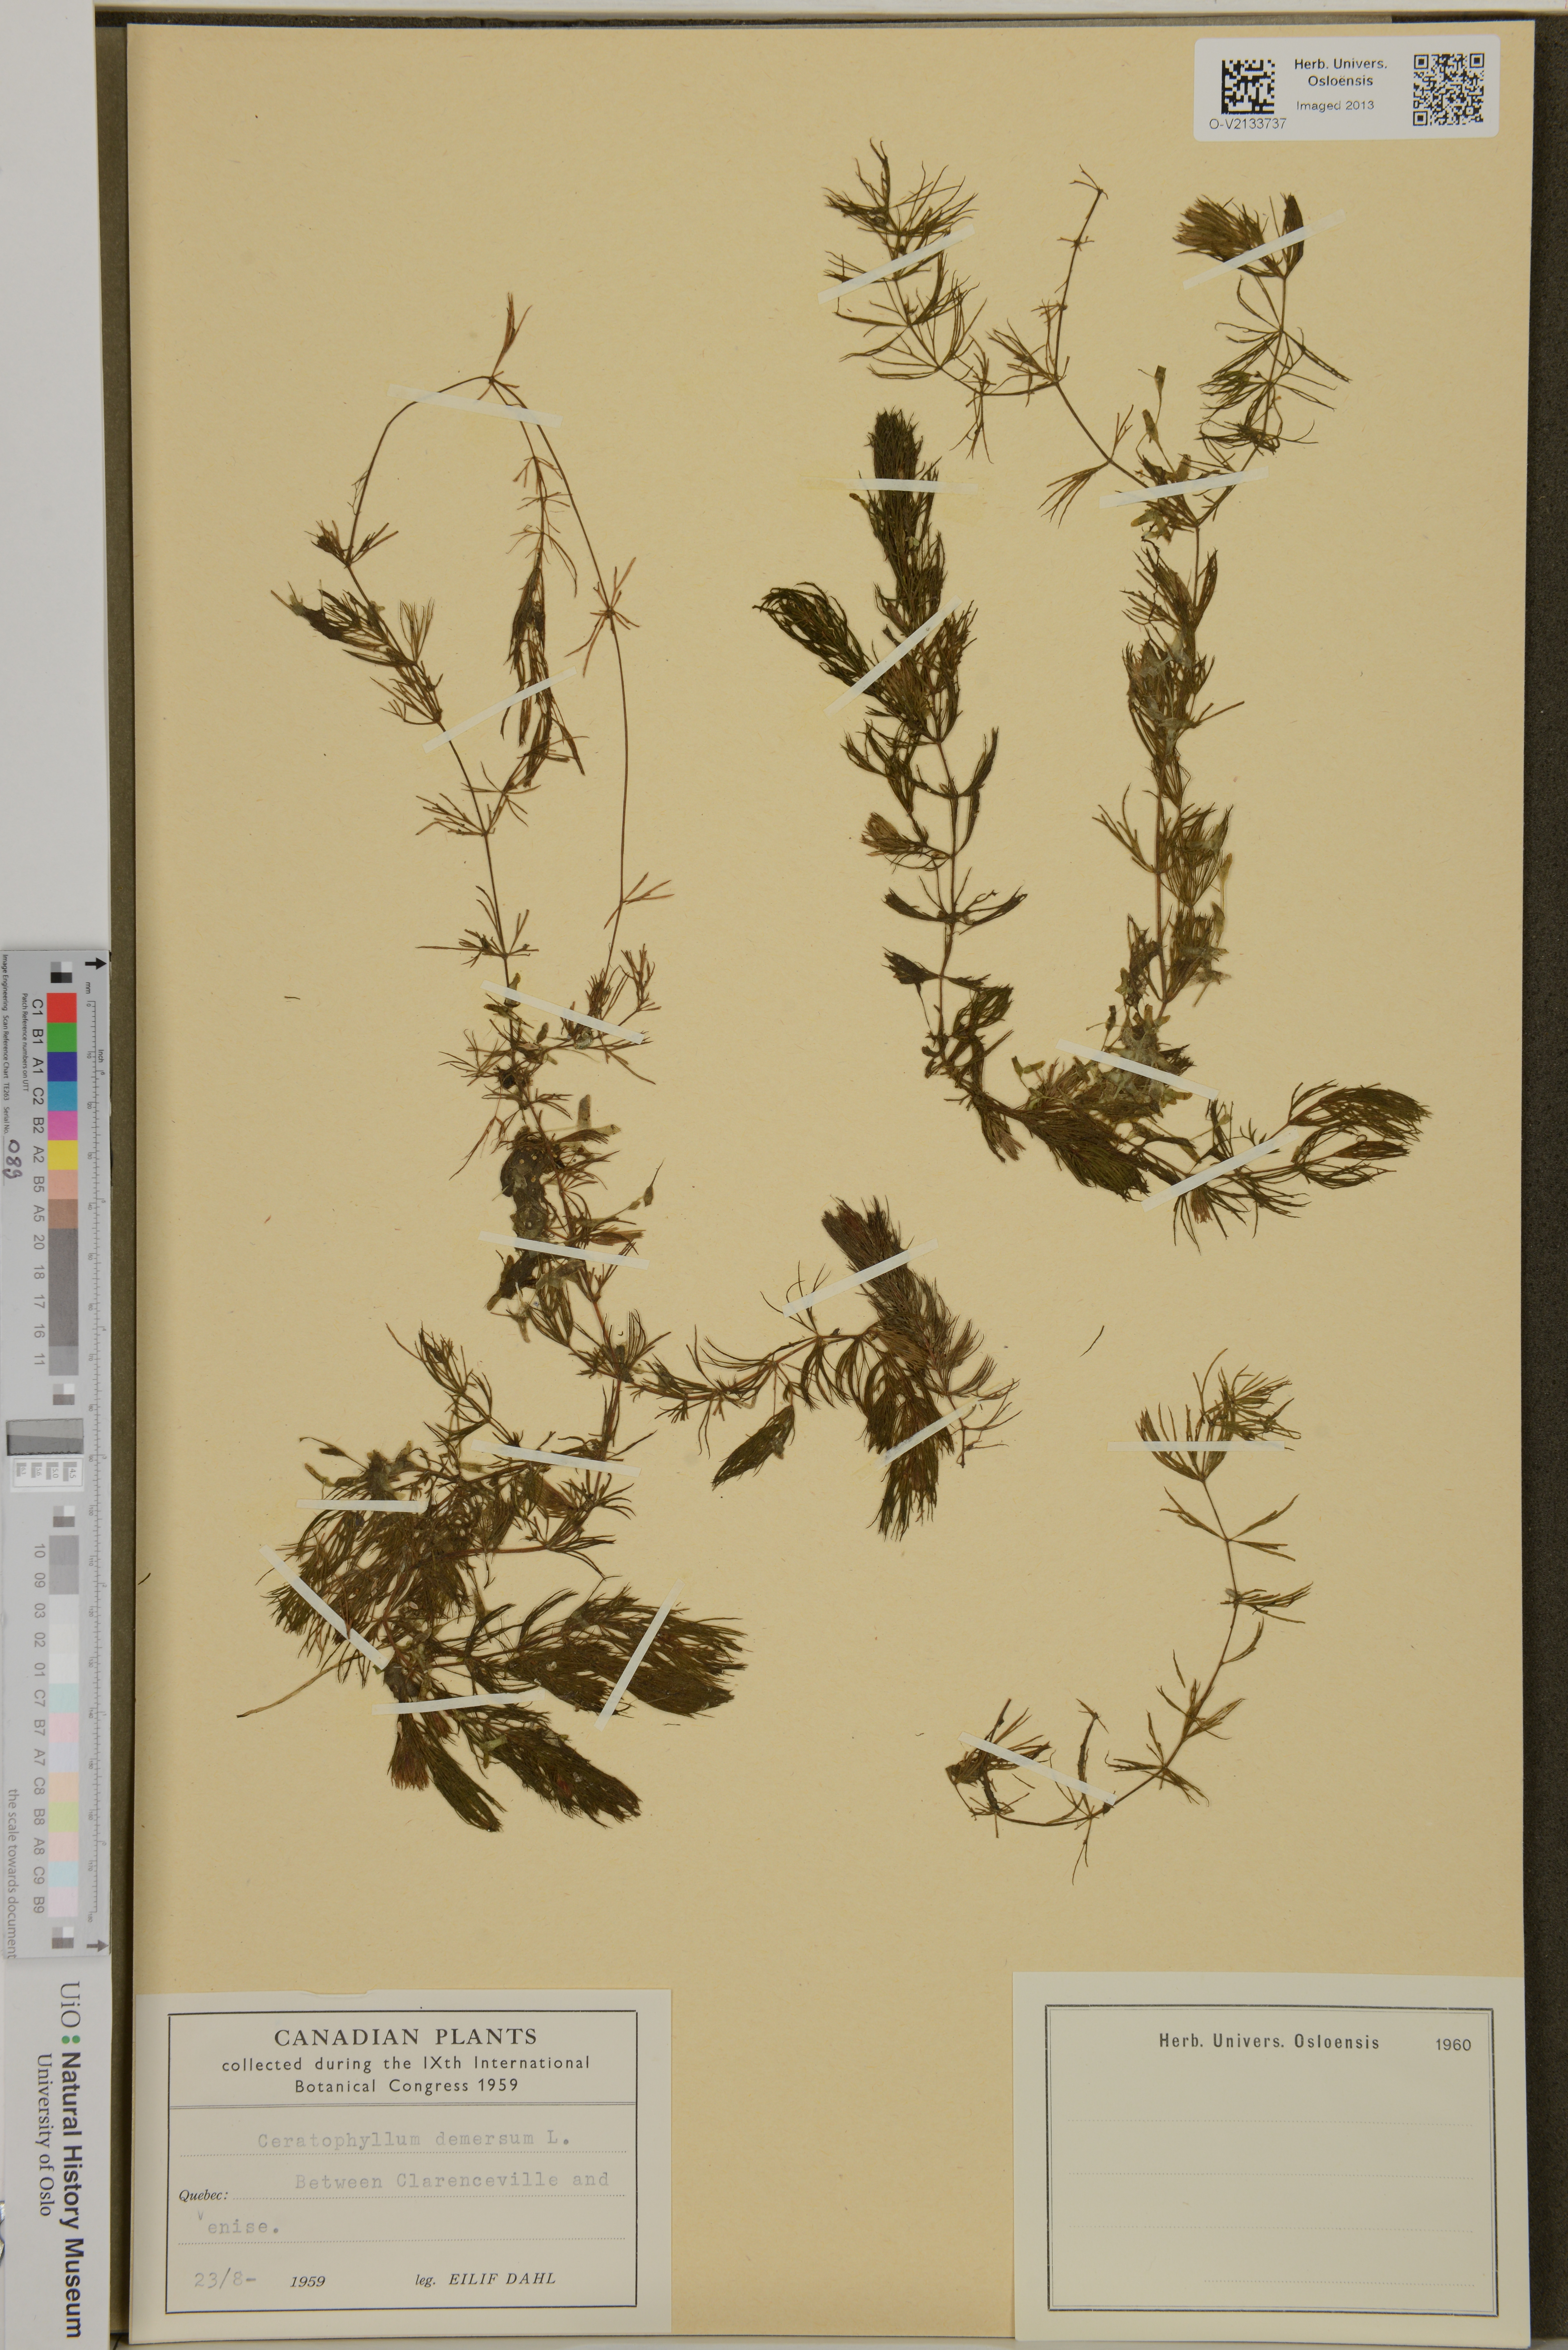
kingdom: Plantae
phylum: Tracheophyta
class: Magnoliopsida
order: Ceratophyllales
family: Ceratophyllaceae
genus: Ceratophyllum
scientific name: Ceratophyllum demersum
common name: Rigid hornwort
